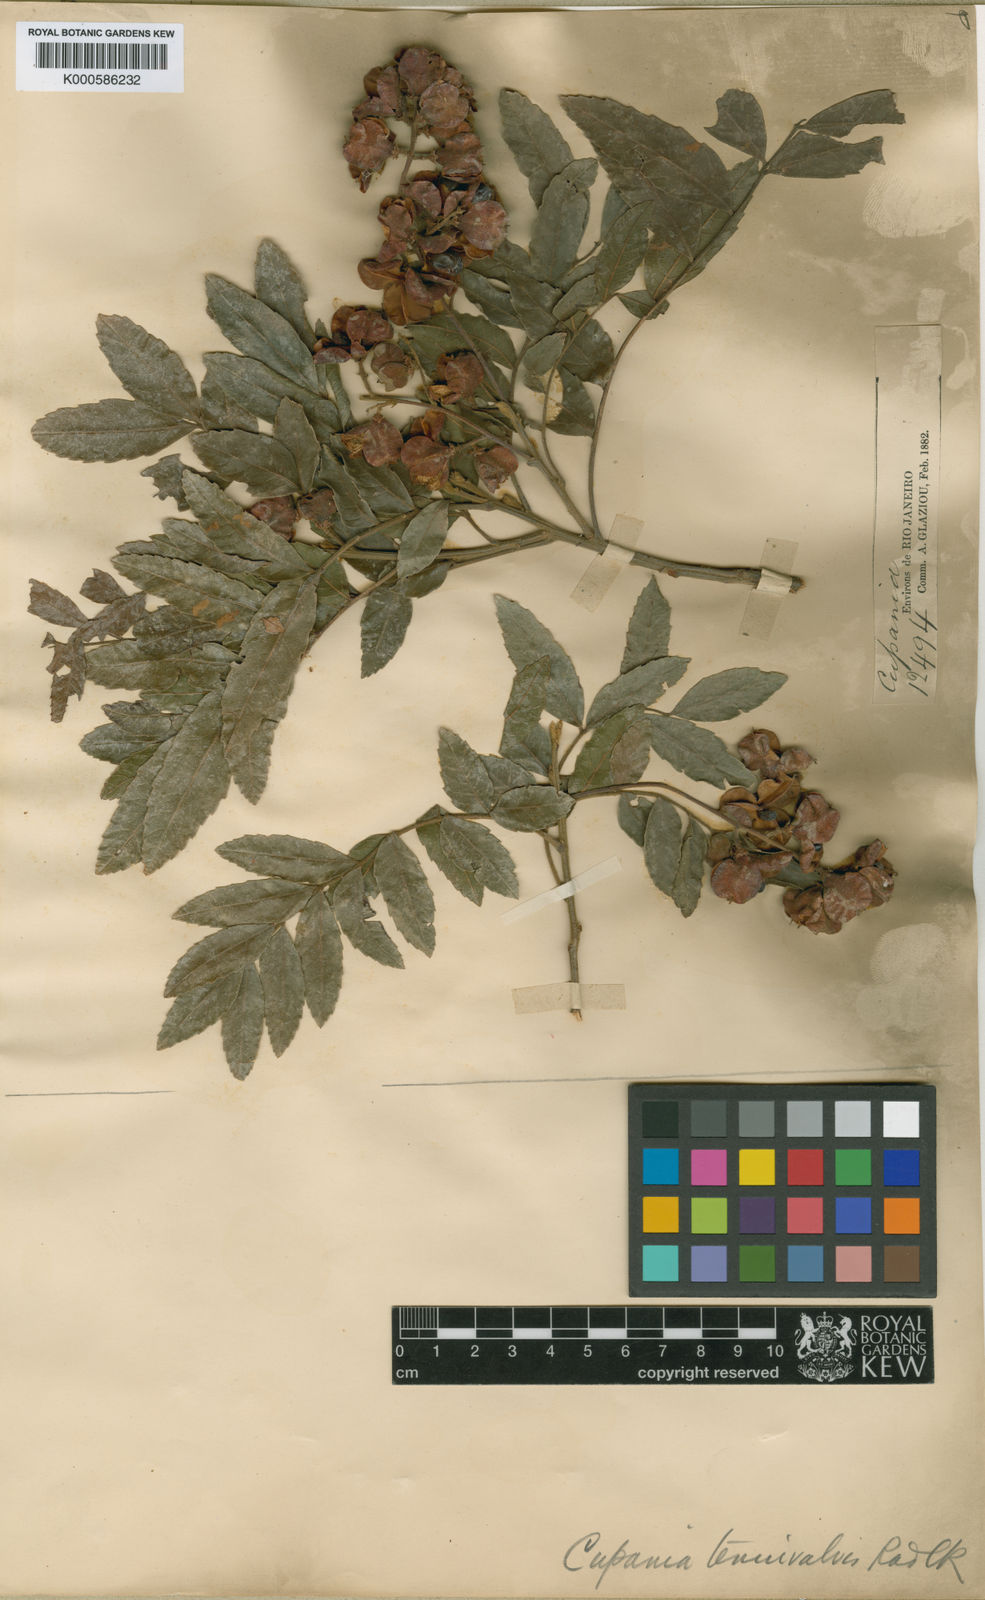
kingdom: Plantae
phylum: Tracheophyta
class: Magnoliopsida
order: Sapindales
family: Sapindaceae
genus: Cupania
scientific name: Cupania tenuivalvis
